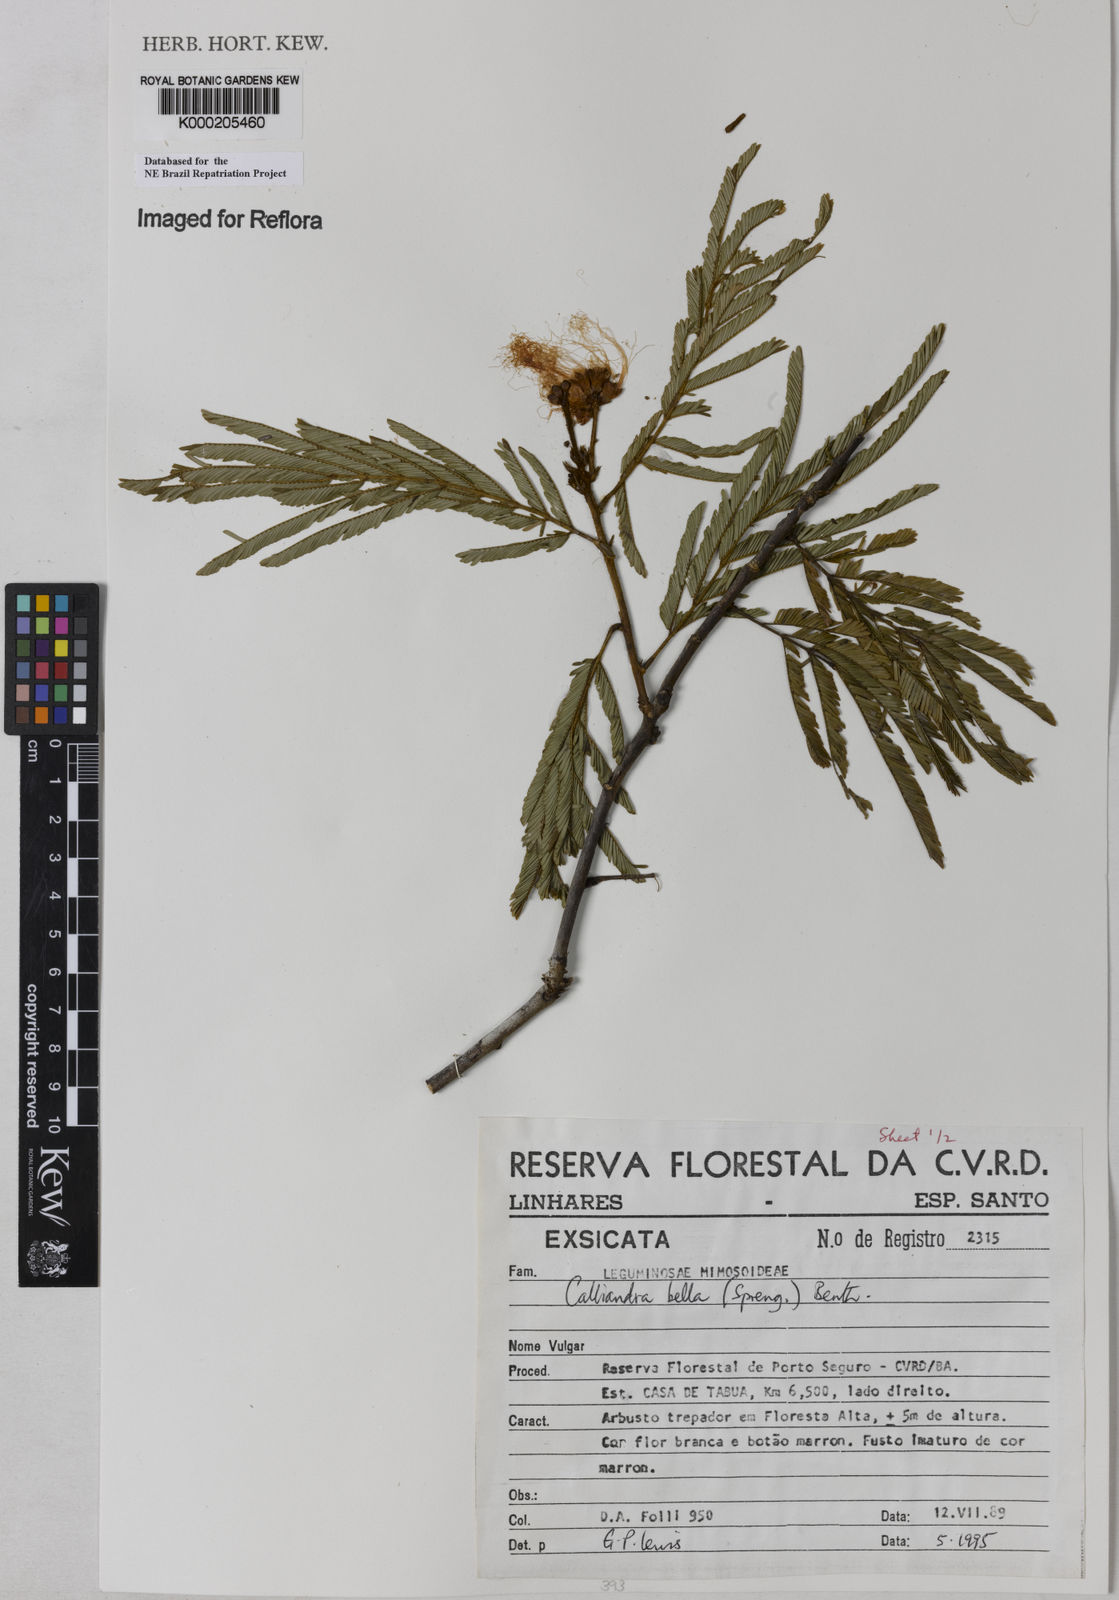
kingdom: Plantae
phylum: Tracheophyta
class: Magnoliopsida
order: Fabales
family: Fabaceae
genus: Calliandra
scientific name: Calliandra bella
